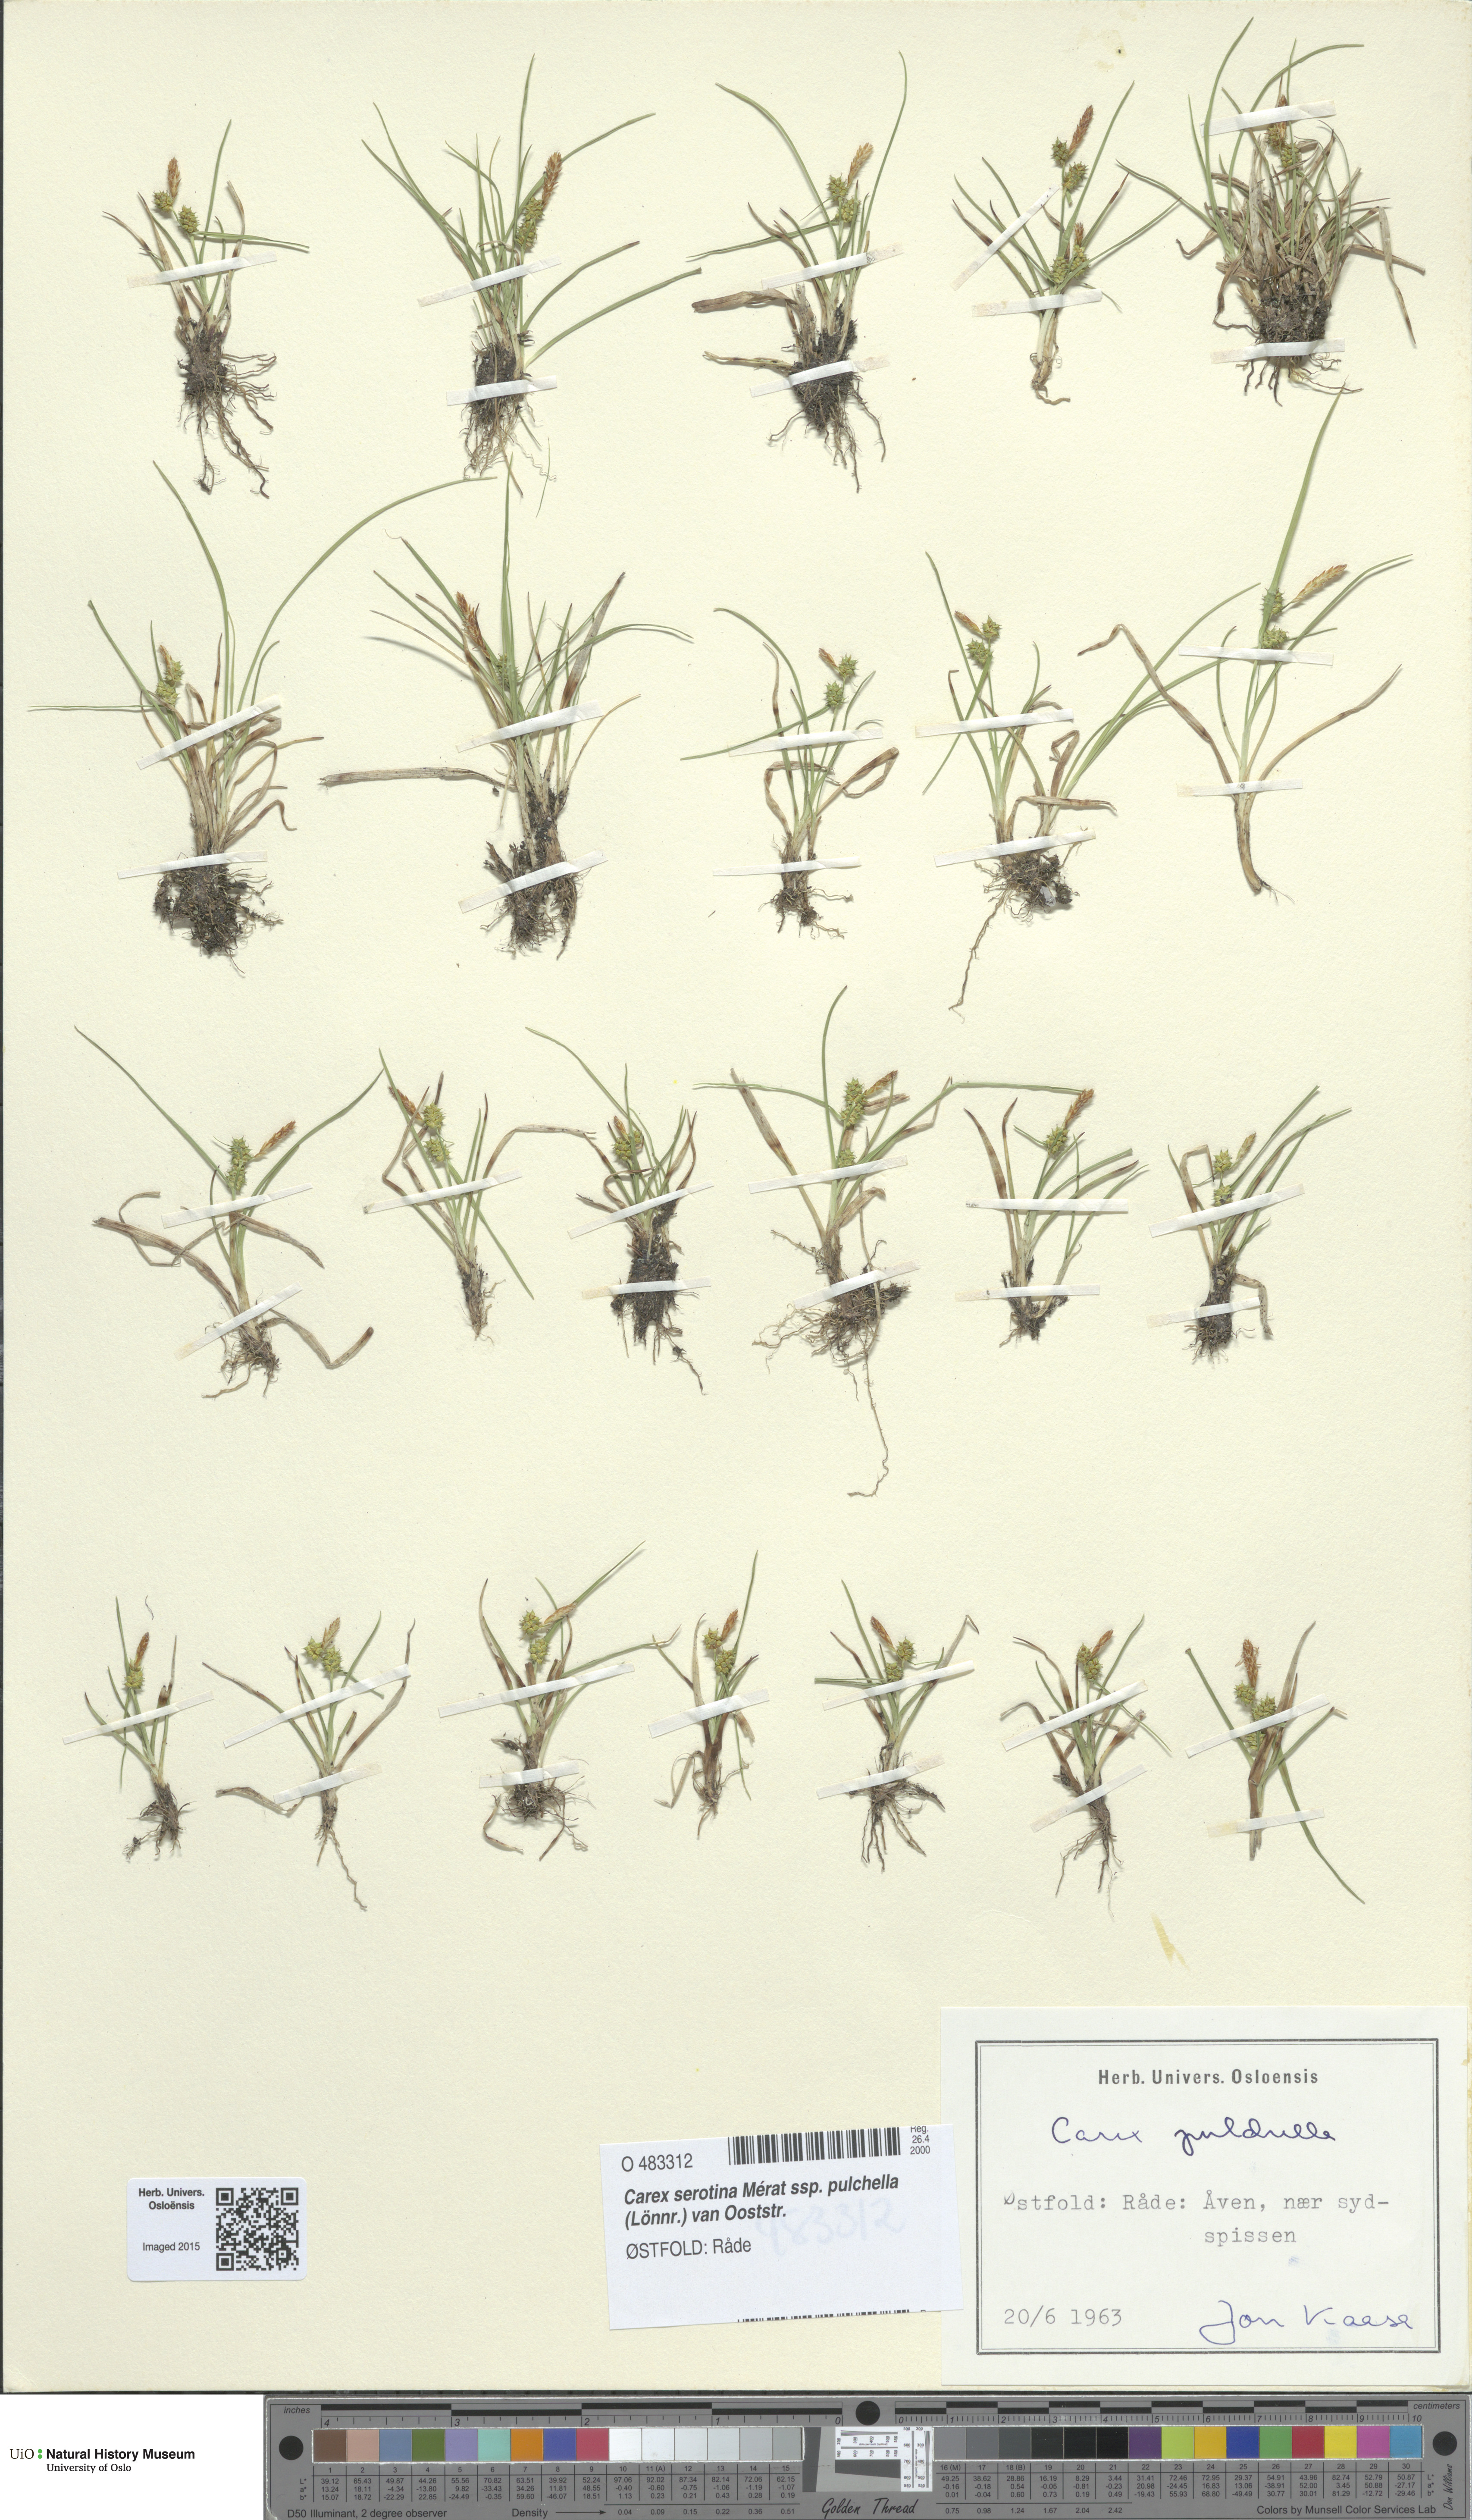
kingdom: Plantae
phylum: Tracheophyta
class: Liliopsida
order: Poales
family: Cyperaceae
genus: Carex
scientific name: Carex oederi
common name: Common & small-fruited yellow-sedge
